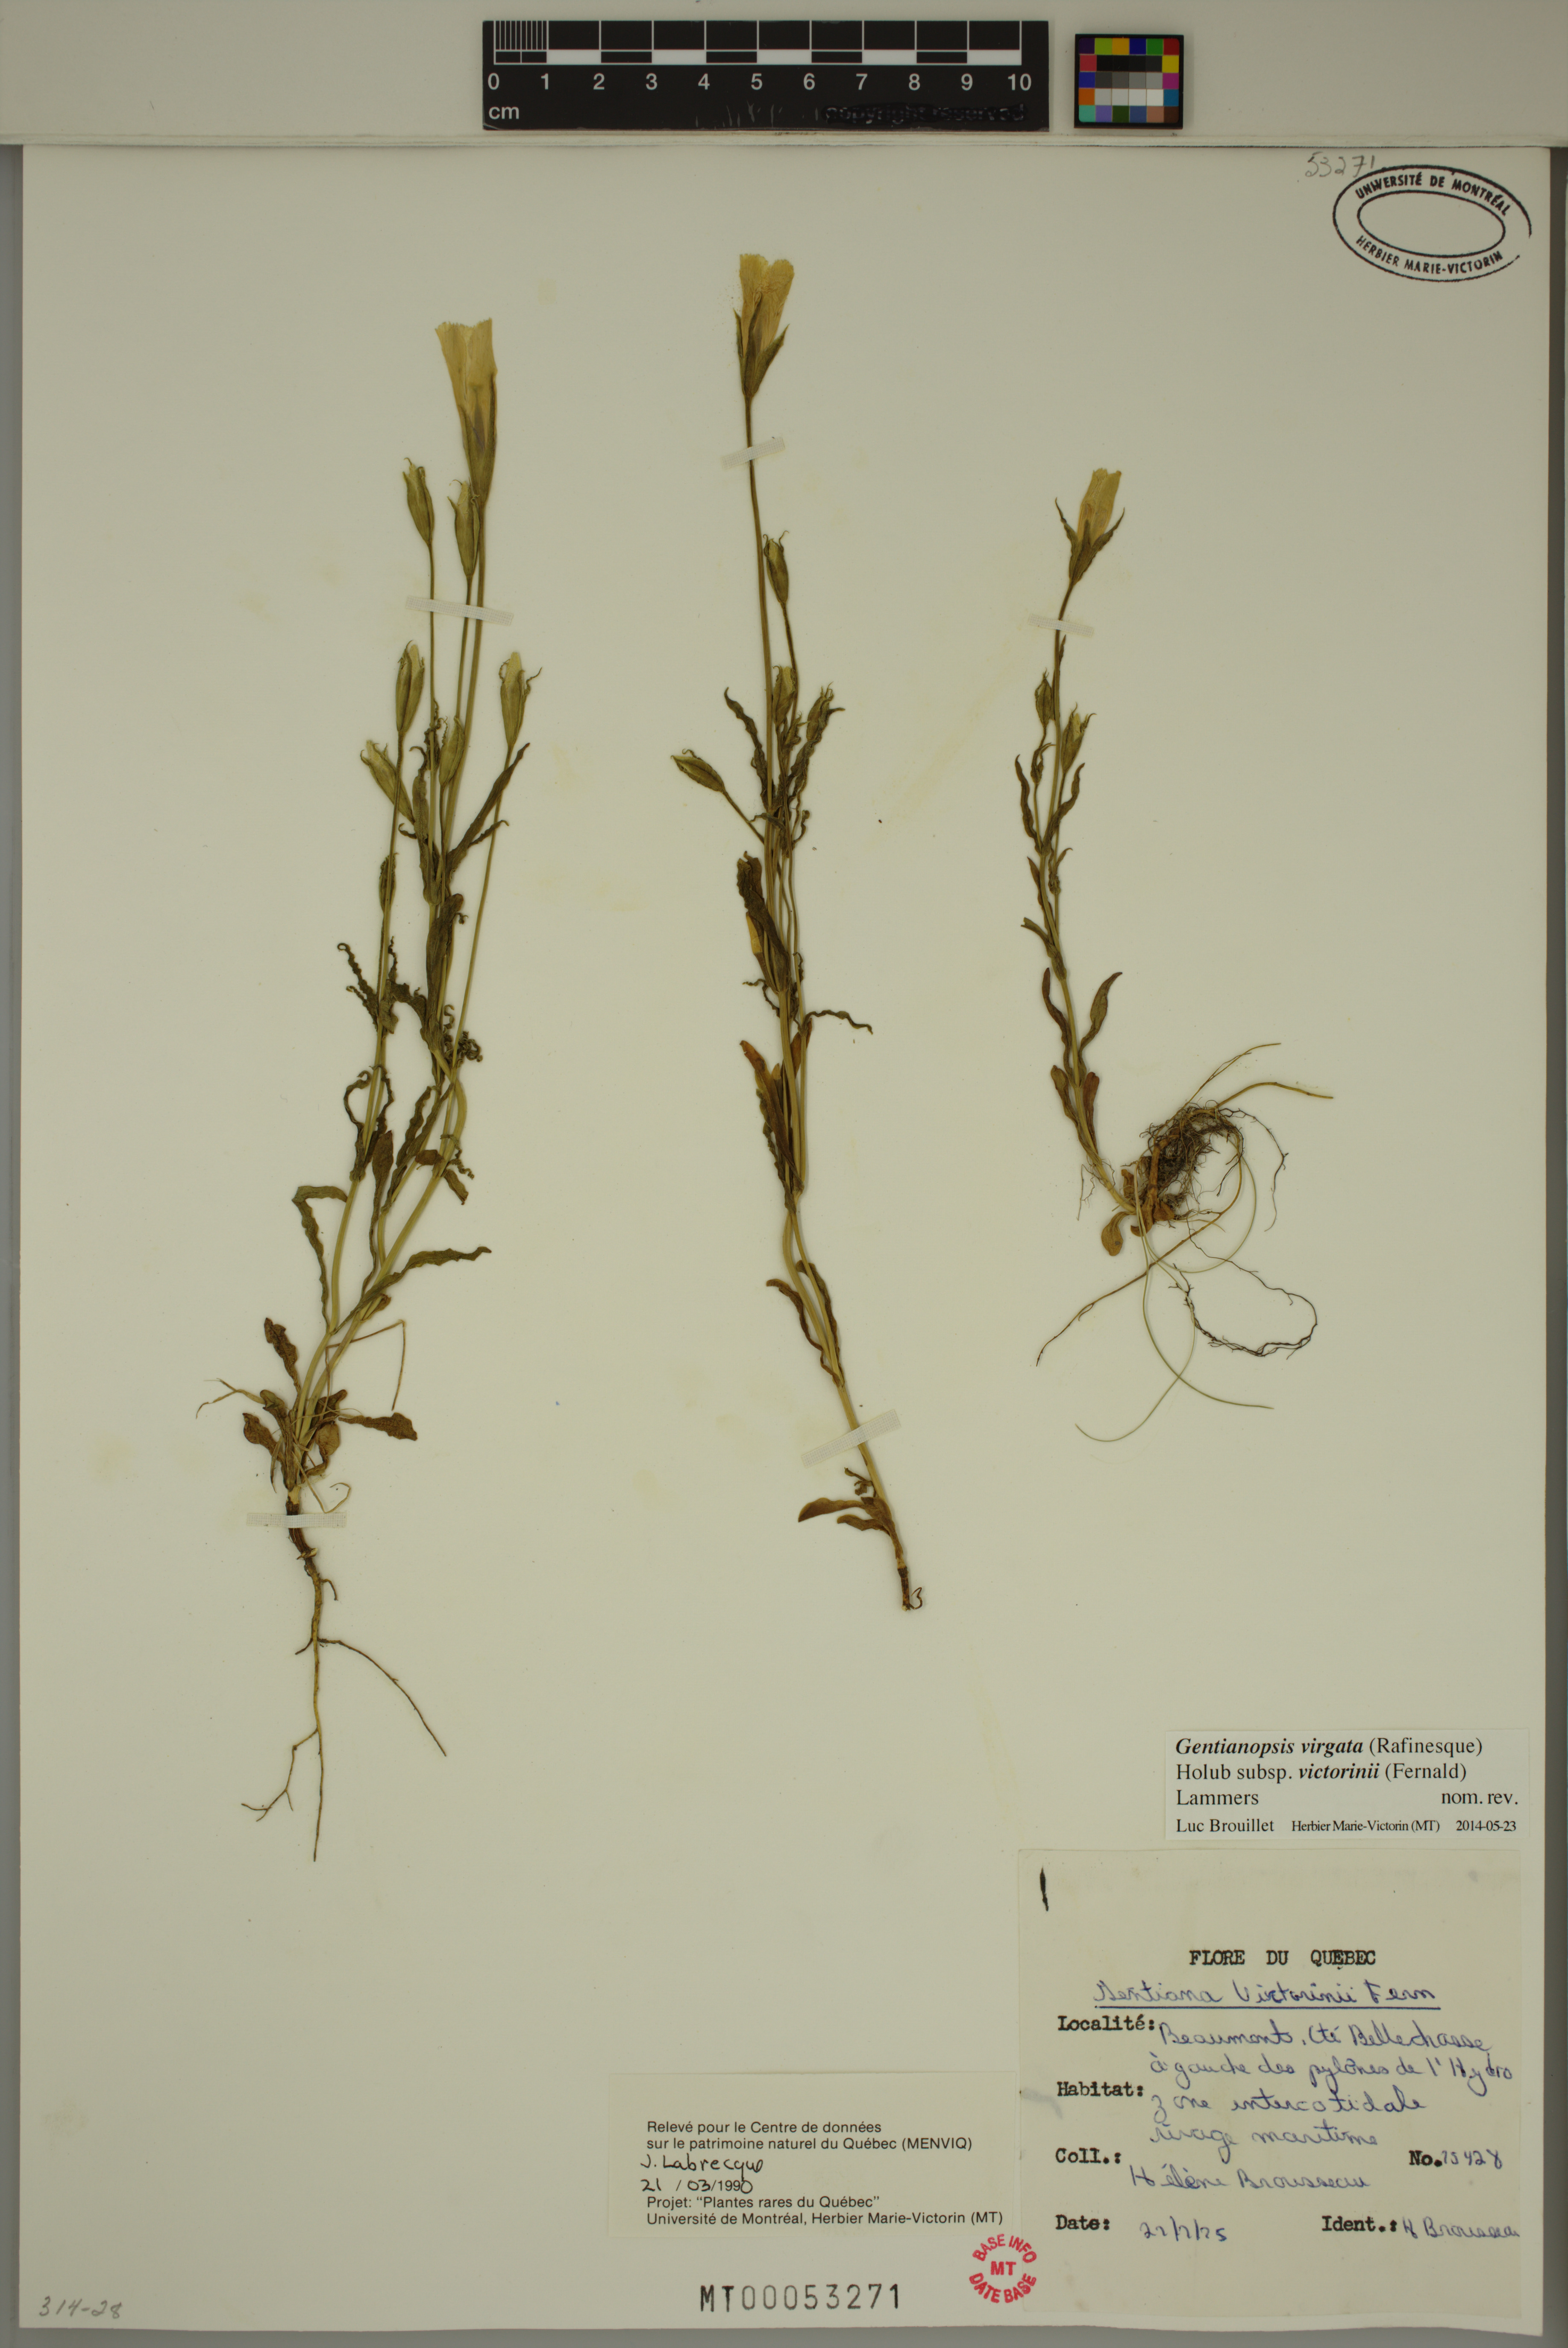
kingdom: Plantae
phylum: Tracheophyta
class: Magnoliopsida
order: Gentianales
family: Gentianaceae
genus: Gentianopsis
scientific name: Gentianopsis victorinii
